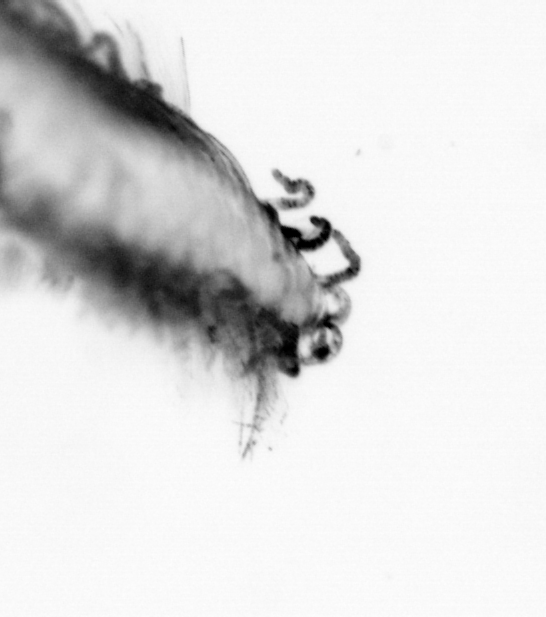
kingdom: Animalia
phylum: Annelida
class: Polychaeta
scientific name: Polychaeta
